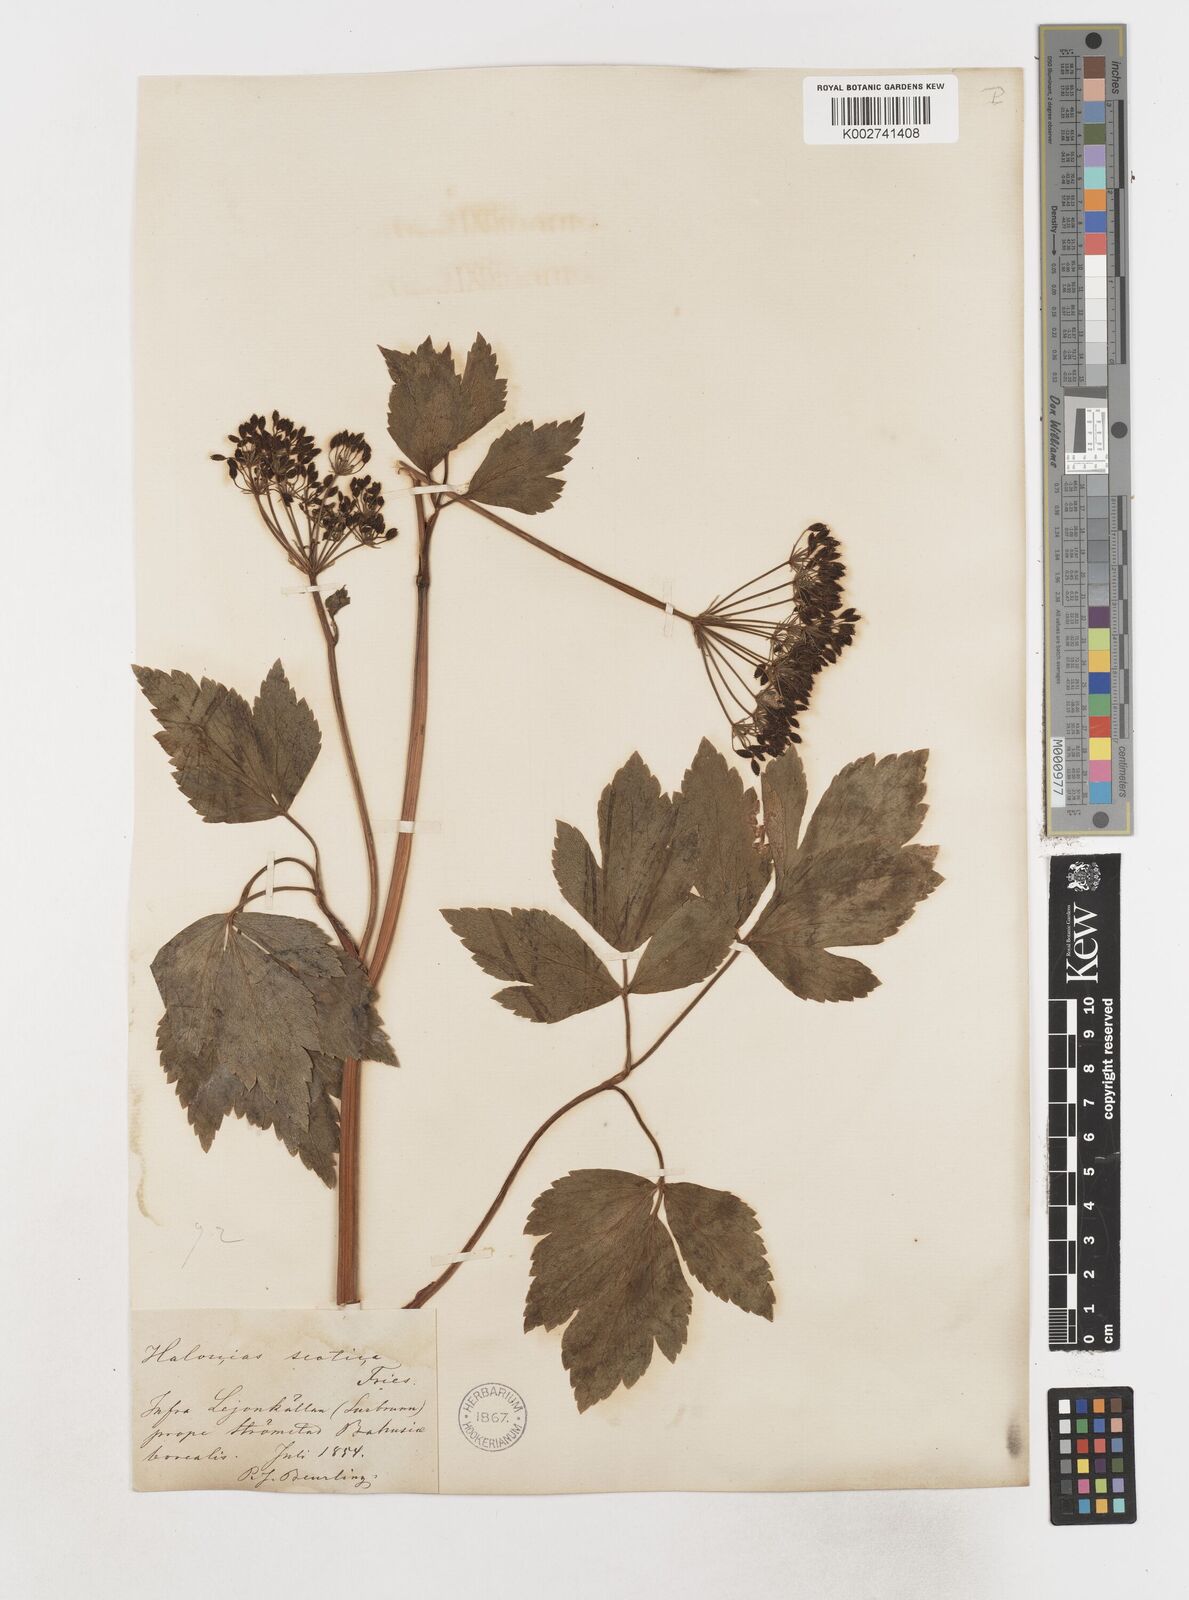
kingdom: Plantae
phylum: Tracheophyta
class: Magnoliopsida
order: Apiales
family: Apiaceae
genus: Ligusticum
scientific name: Ligusticum scothicum
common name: Beach lovage
